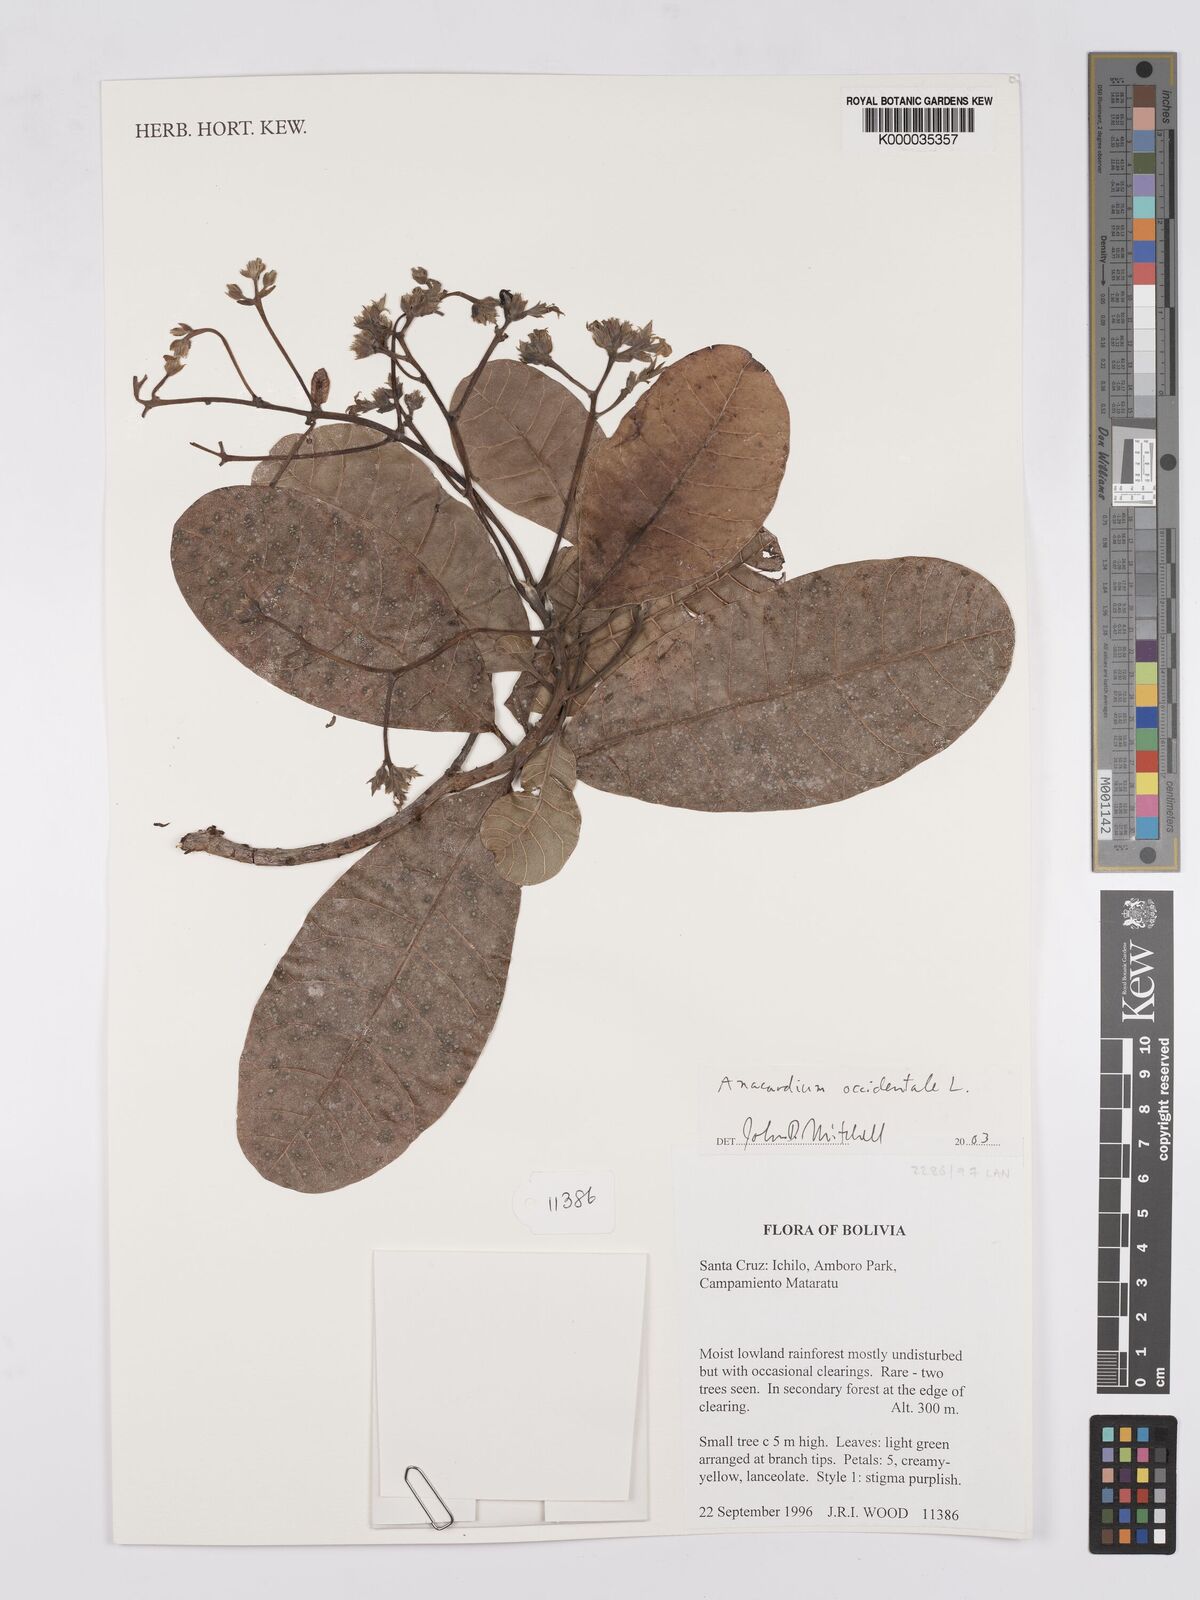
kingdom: Plantae
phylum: Tracheophyta
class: Magnoliopsida
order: Sapindales
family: Anacardiaceae
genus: Anacardium
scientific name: Anacardium occidentale
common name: Cashew
